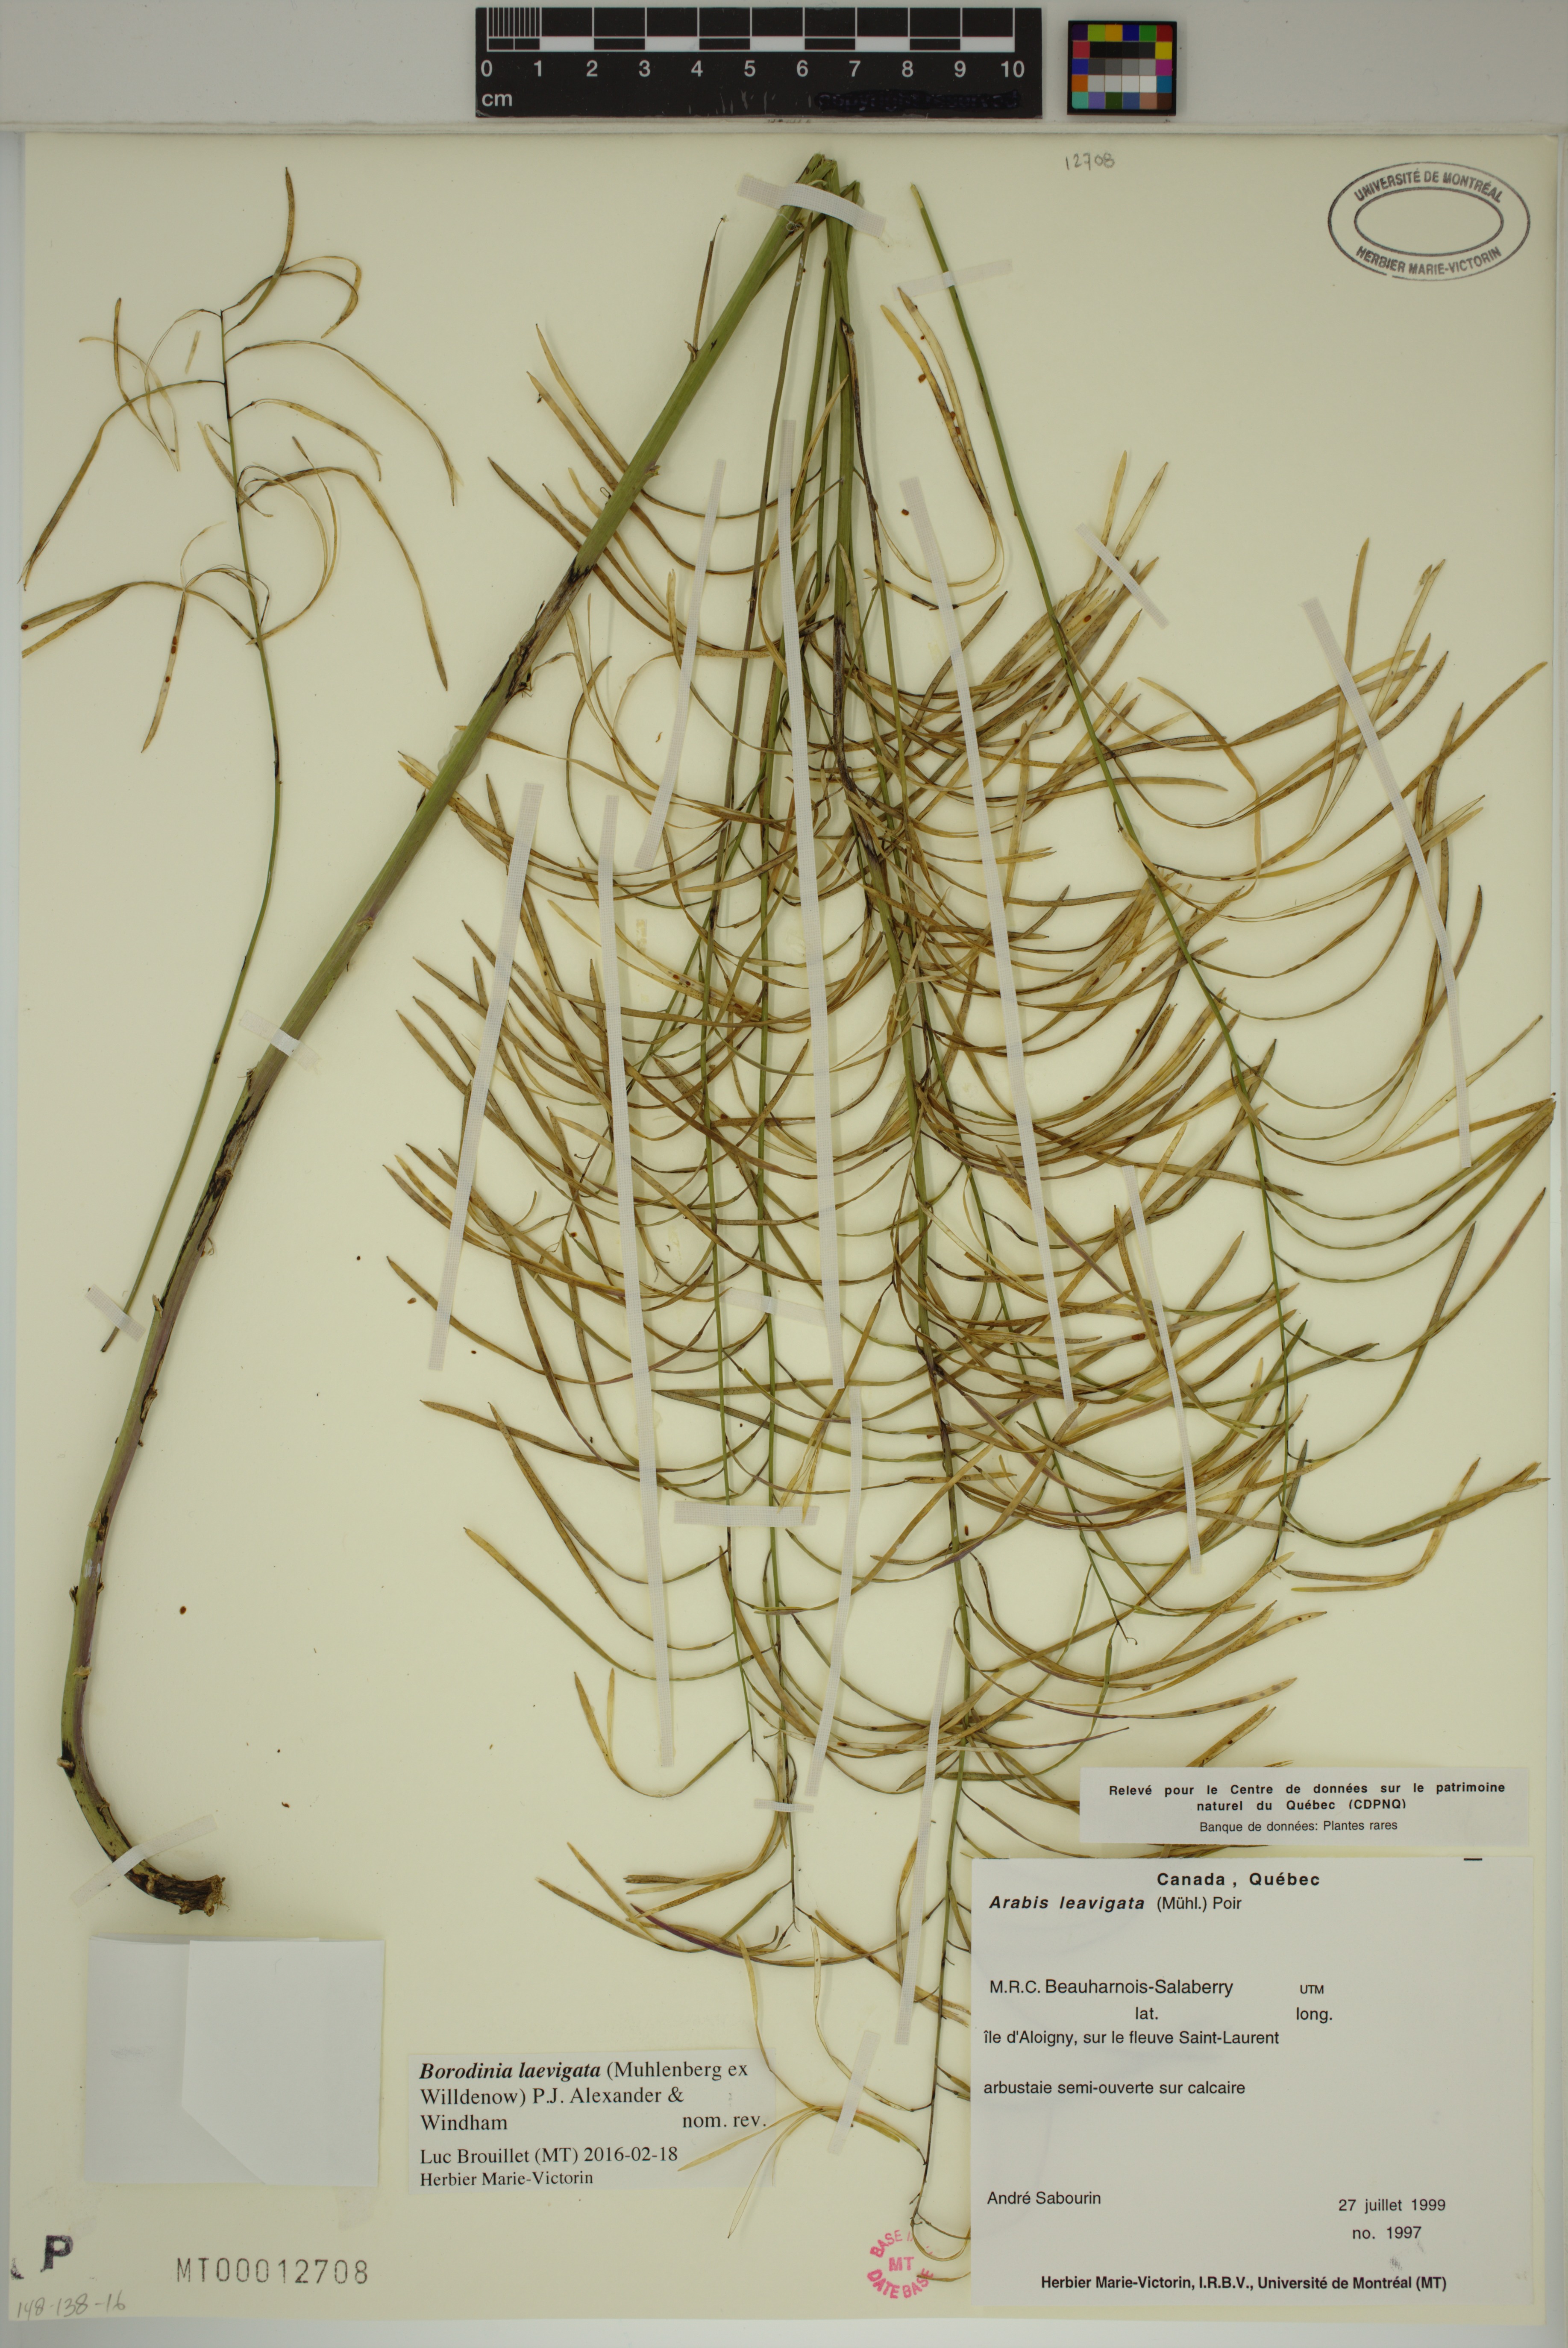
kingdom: Plantae
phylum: Tracheophyta
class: Magnoliopsida
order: Brassicales
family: Brassicaceae
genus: Borodinia
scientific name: Borodinia laevigata
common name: Smooth rockcress
